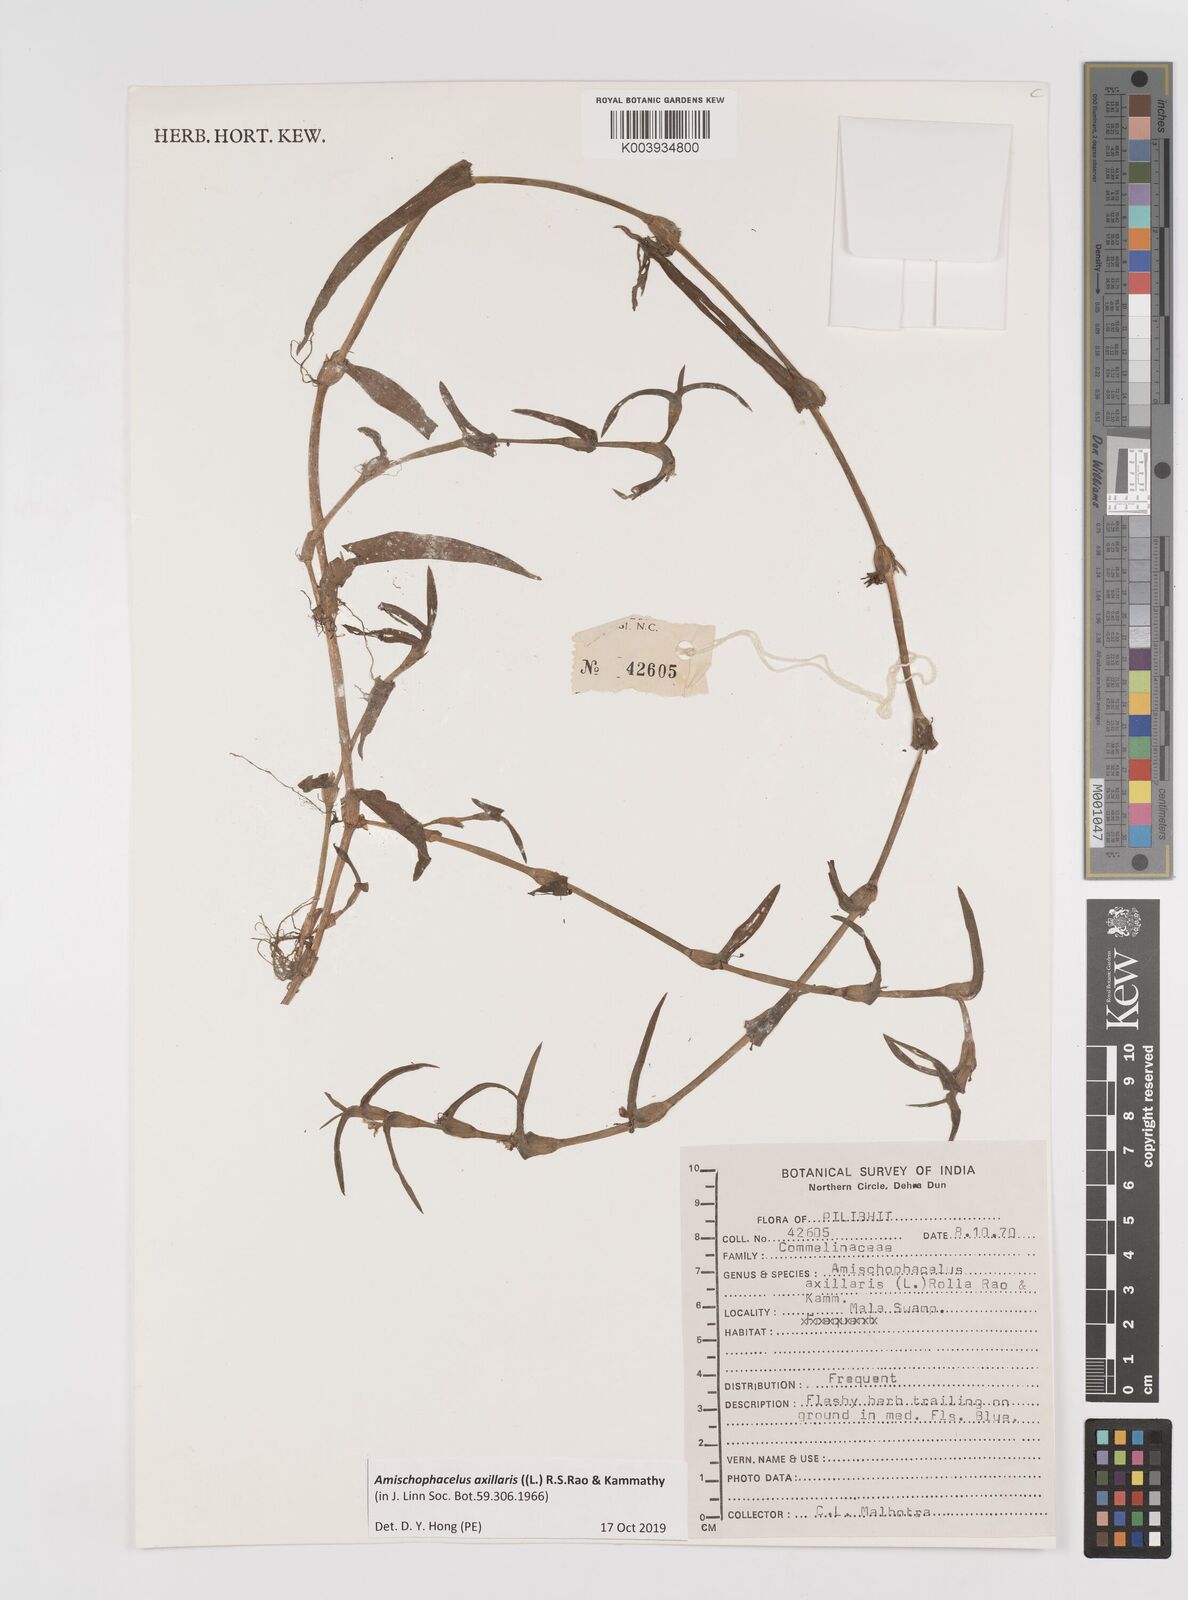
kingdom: Plantae
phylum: Tracheophyta
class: Liliopsida
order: Commelinales
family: Commelinaceae
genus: Cyanotis
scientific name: Cyanotis axillaris
